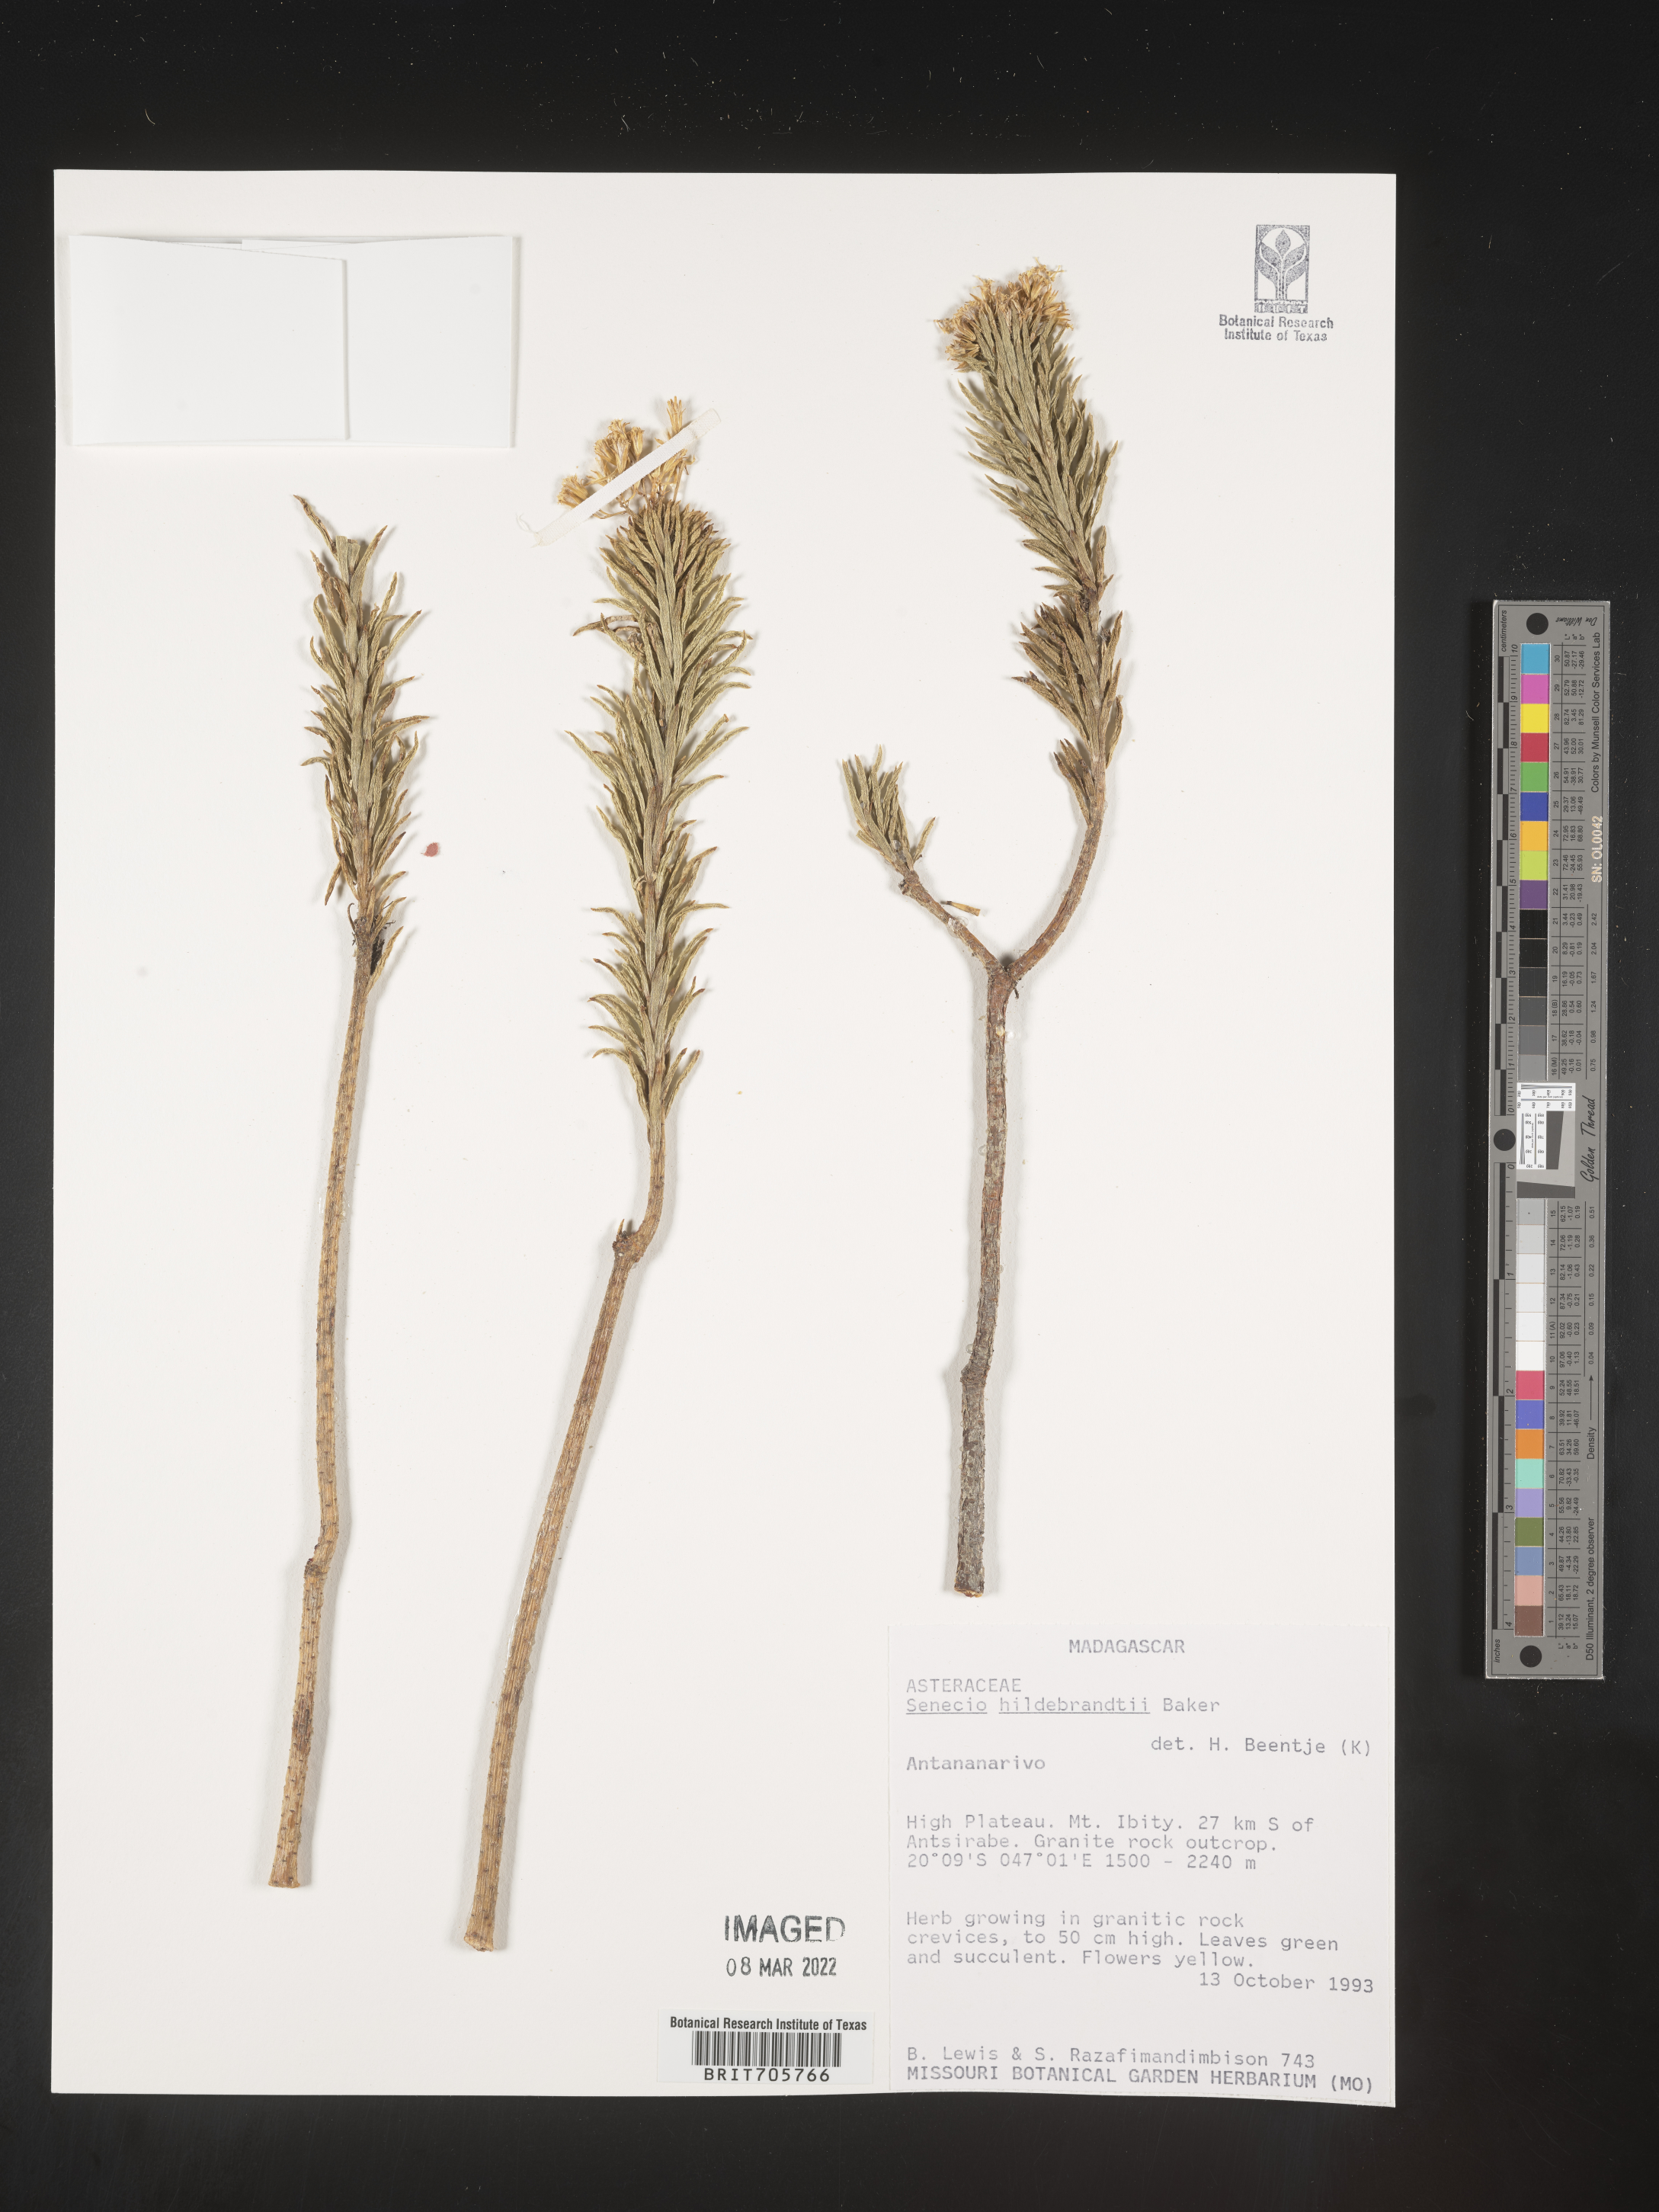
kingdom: Plantae
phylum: Tracheophyta
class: Magnoliopsida
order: Asterales
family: Asteraceae
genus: Senecio
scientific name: Senecio
